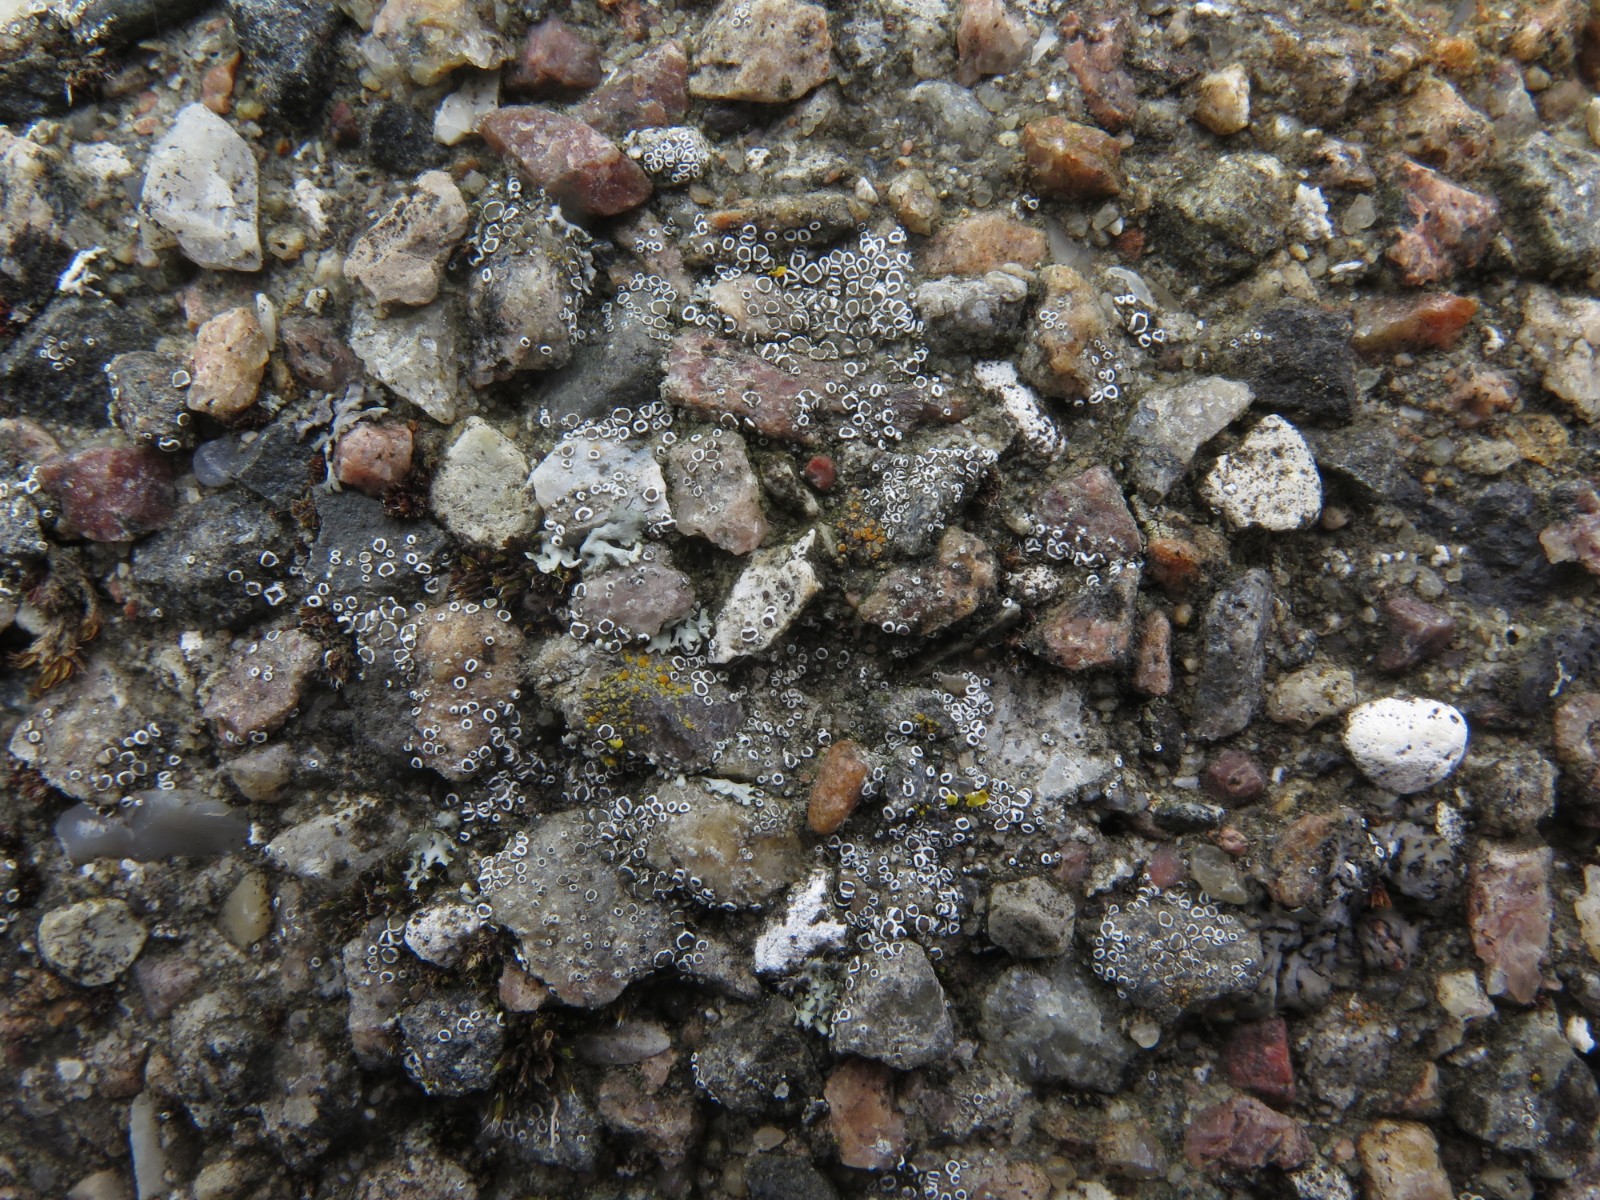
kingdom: Fungi
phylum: Ascomycota
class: Lecanoromycetes
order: Lecanorales
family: Lecanoraceae
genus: Polyozosia
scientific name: Polyozosia dispersa
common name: spredt kantskivelav
